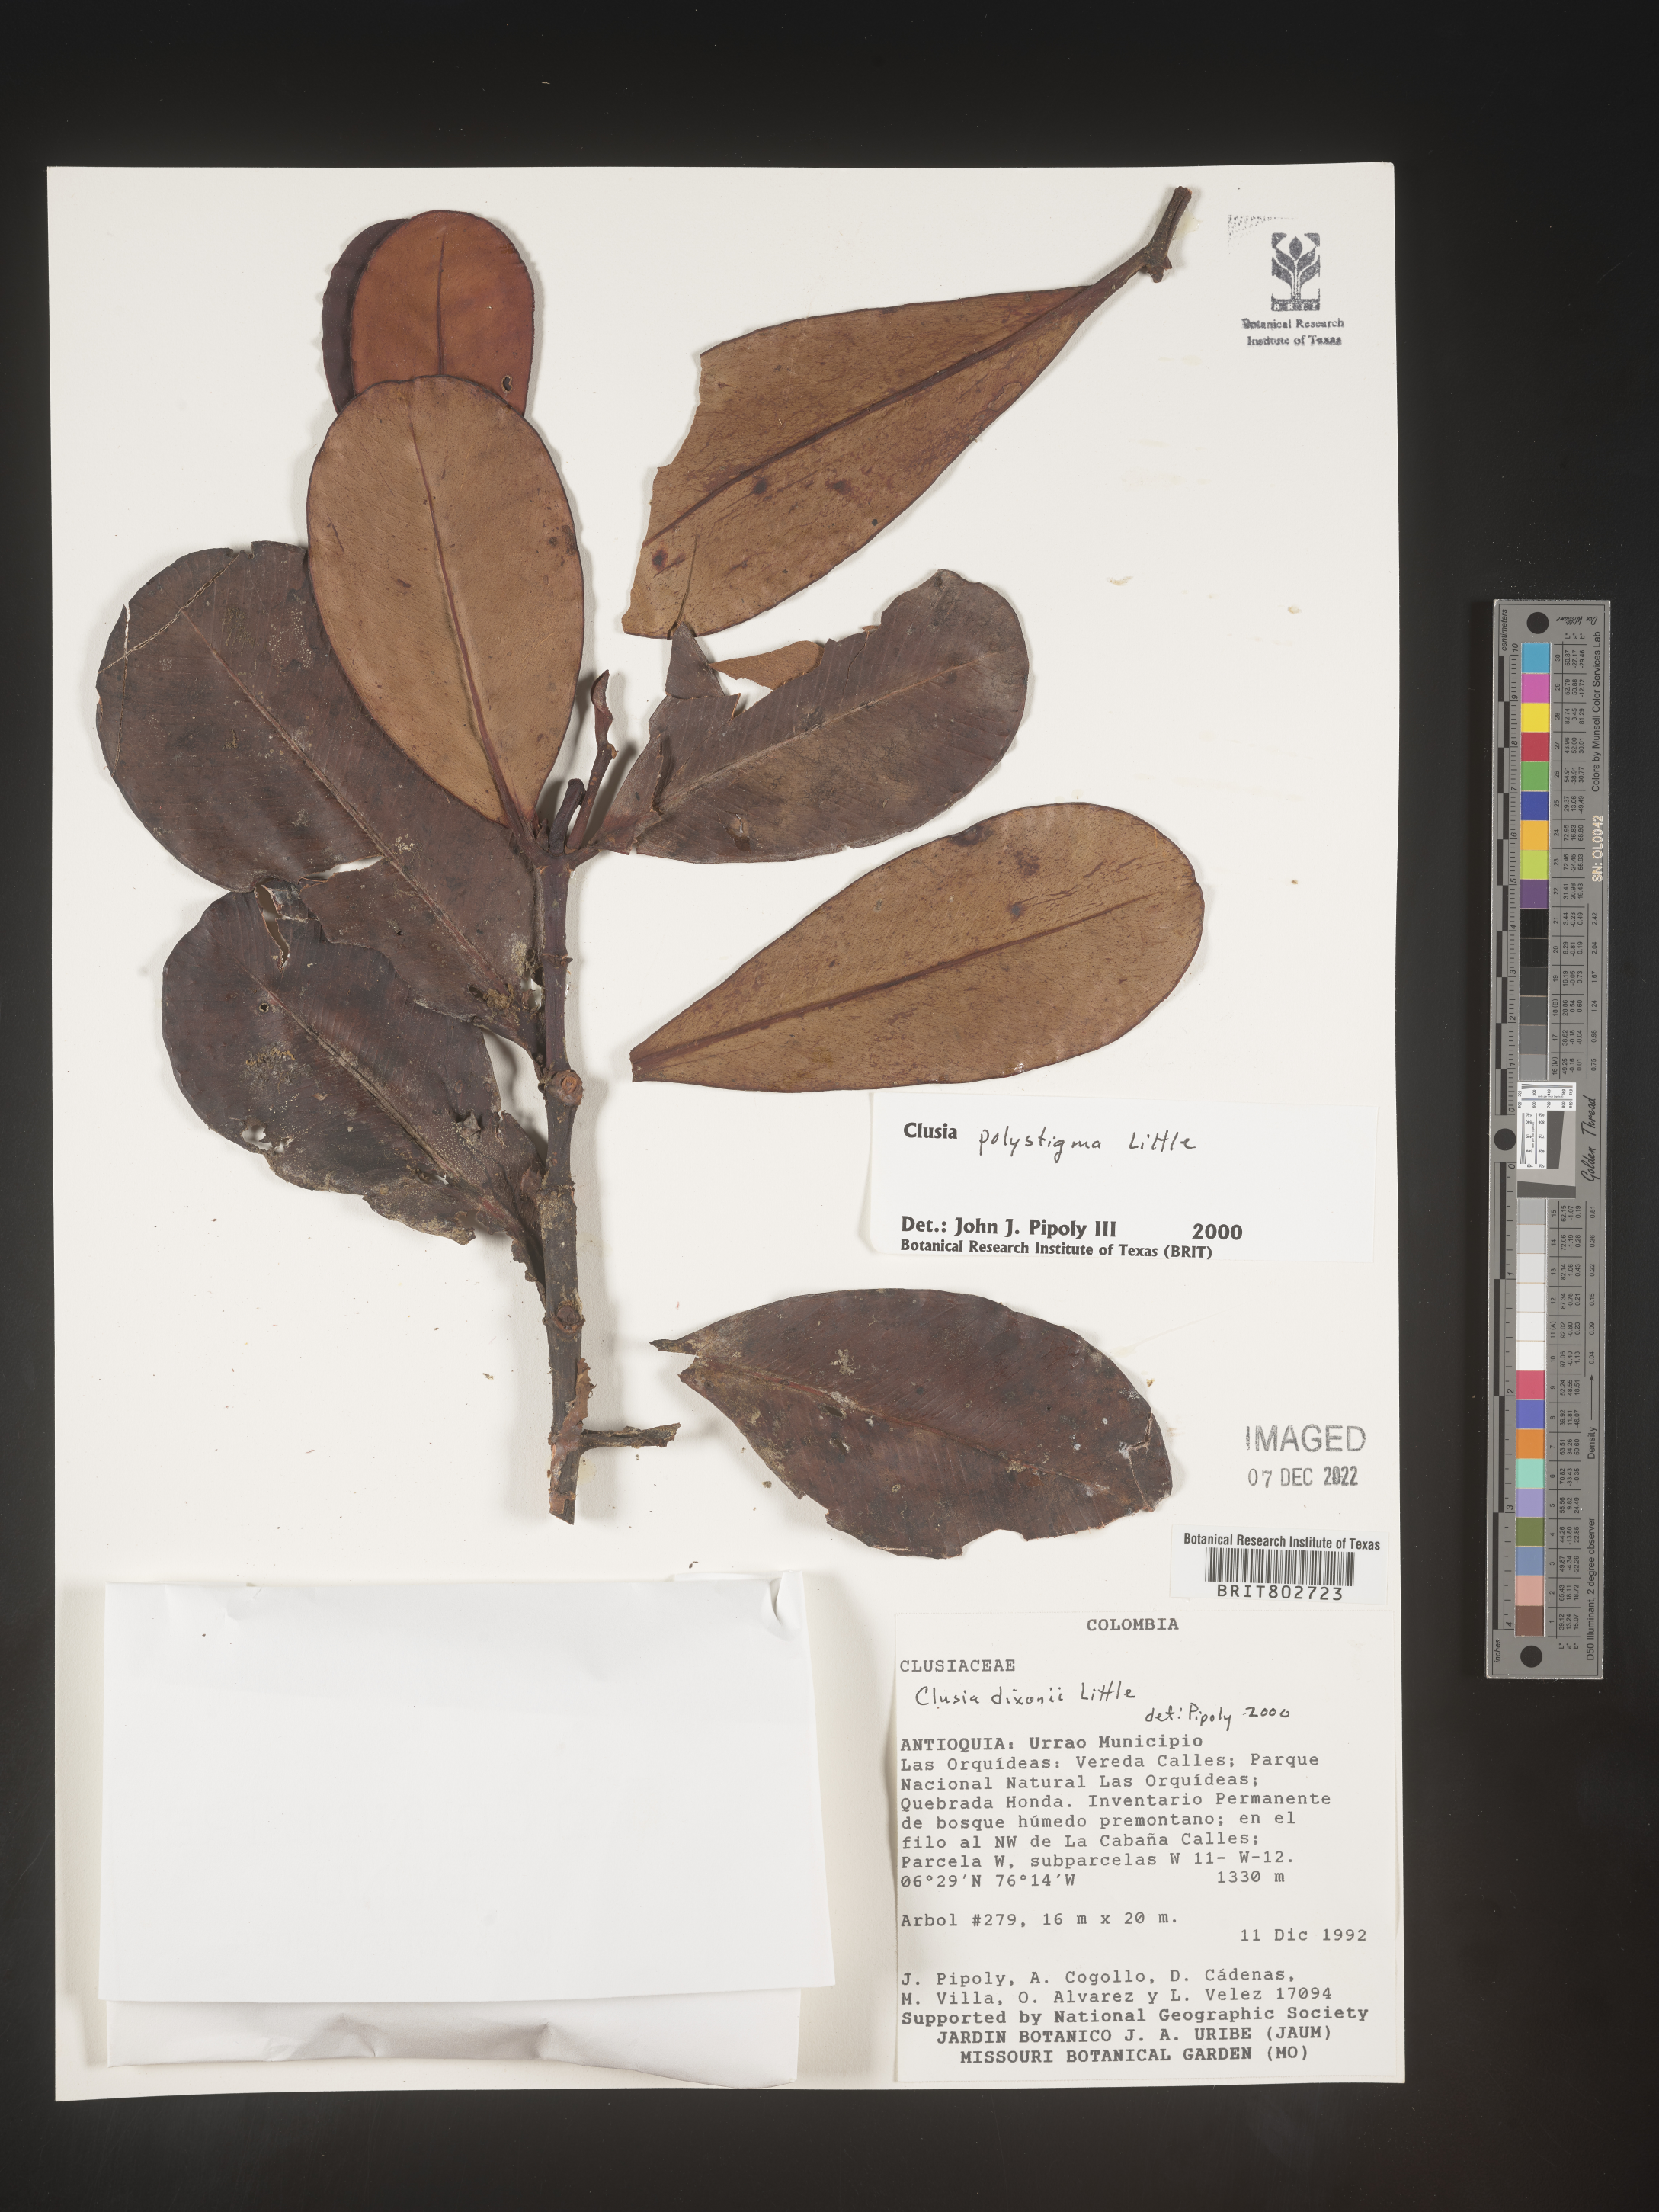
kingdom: Plantae
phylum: Tracheophyta
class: Magnoliopsida
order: Malpighiales
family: Clusiaceae
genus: Clusia
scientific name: Clusia
